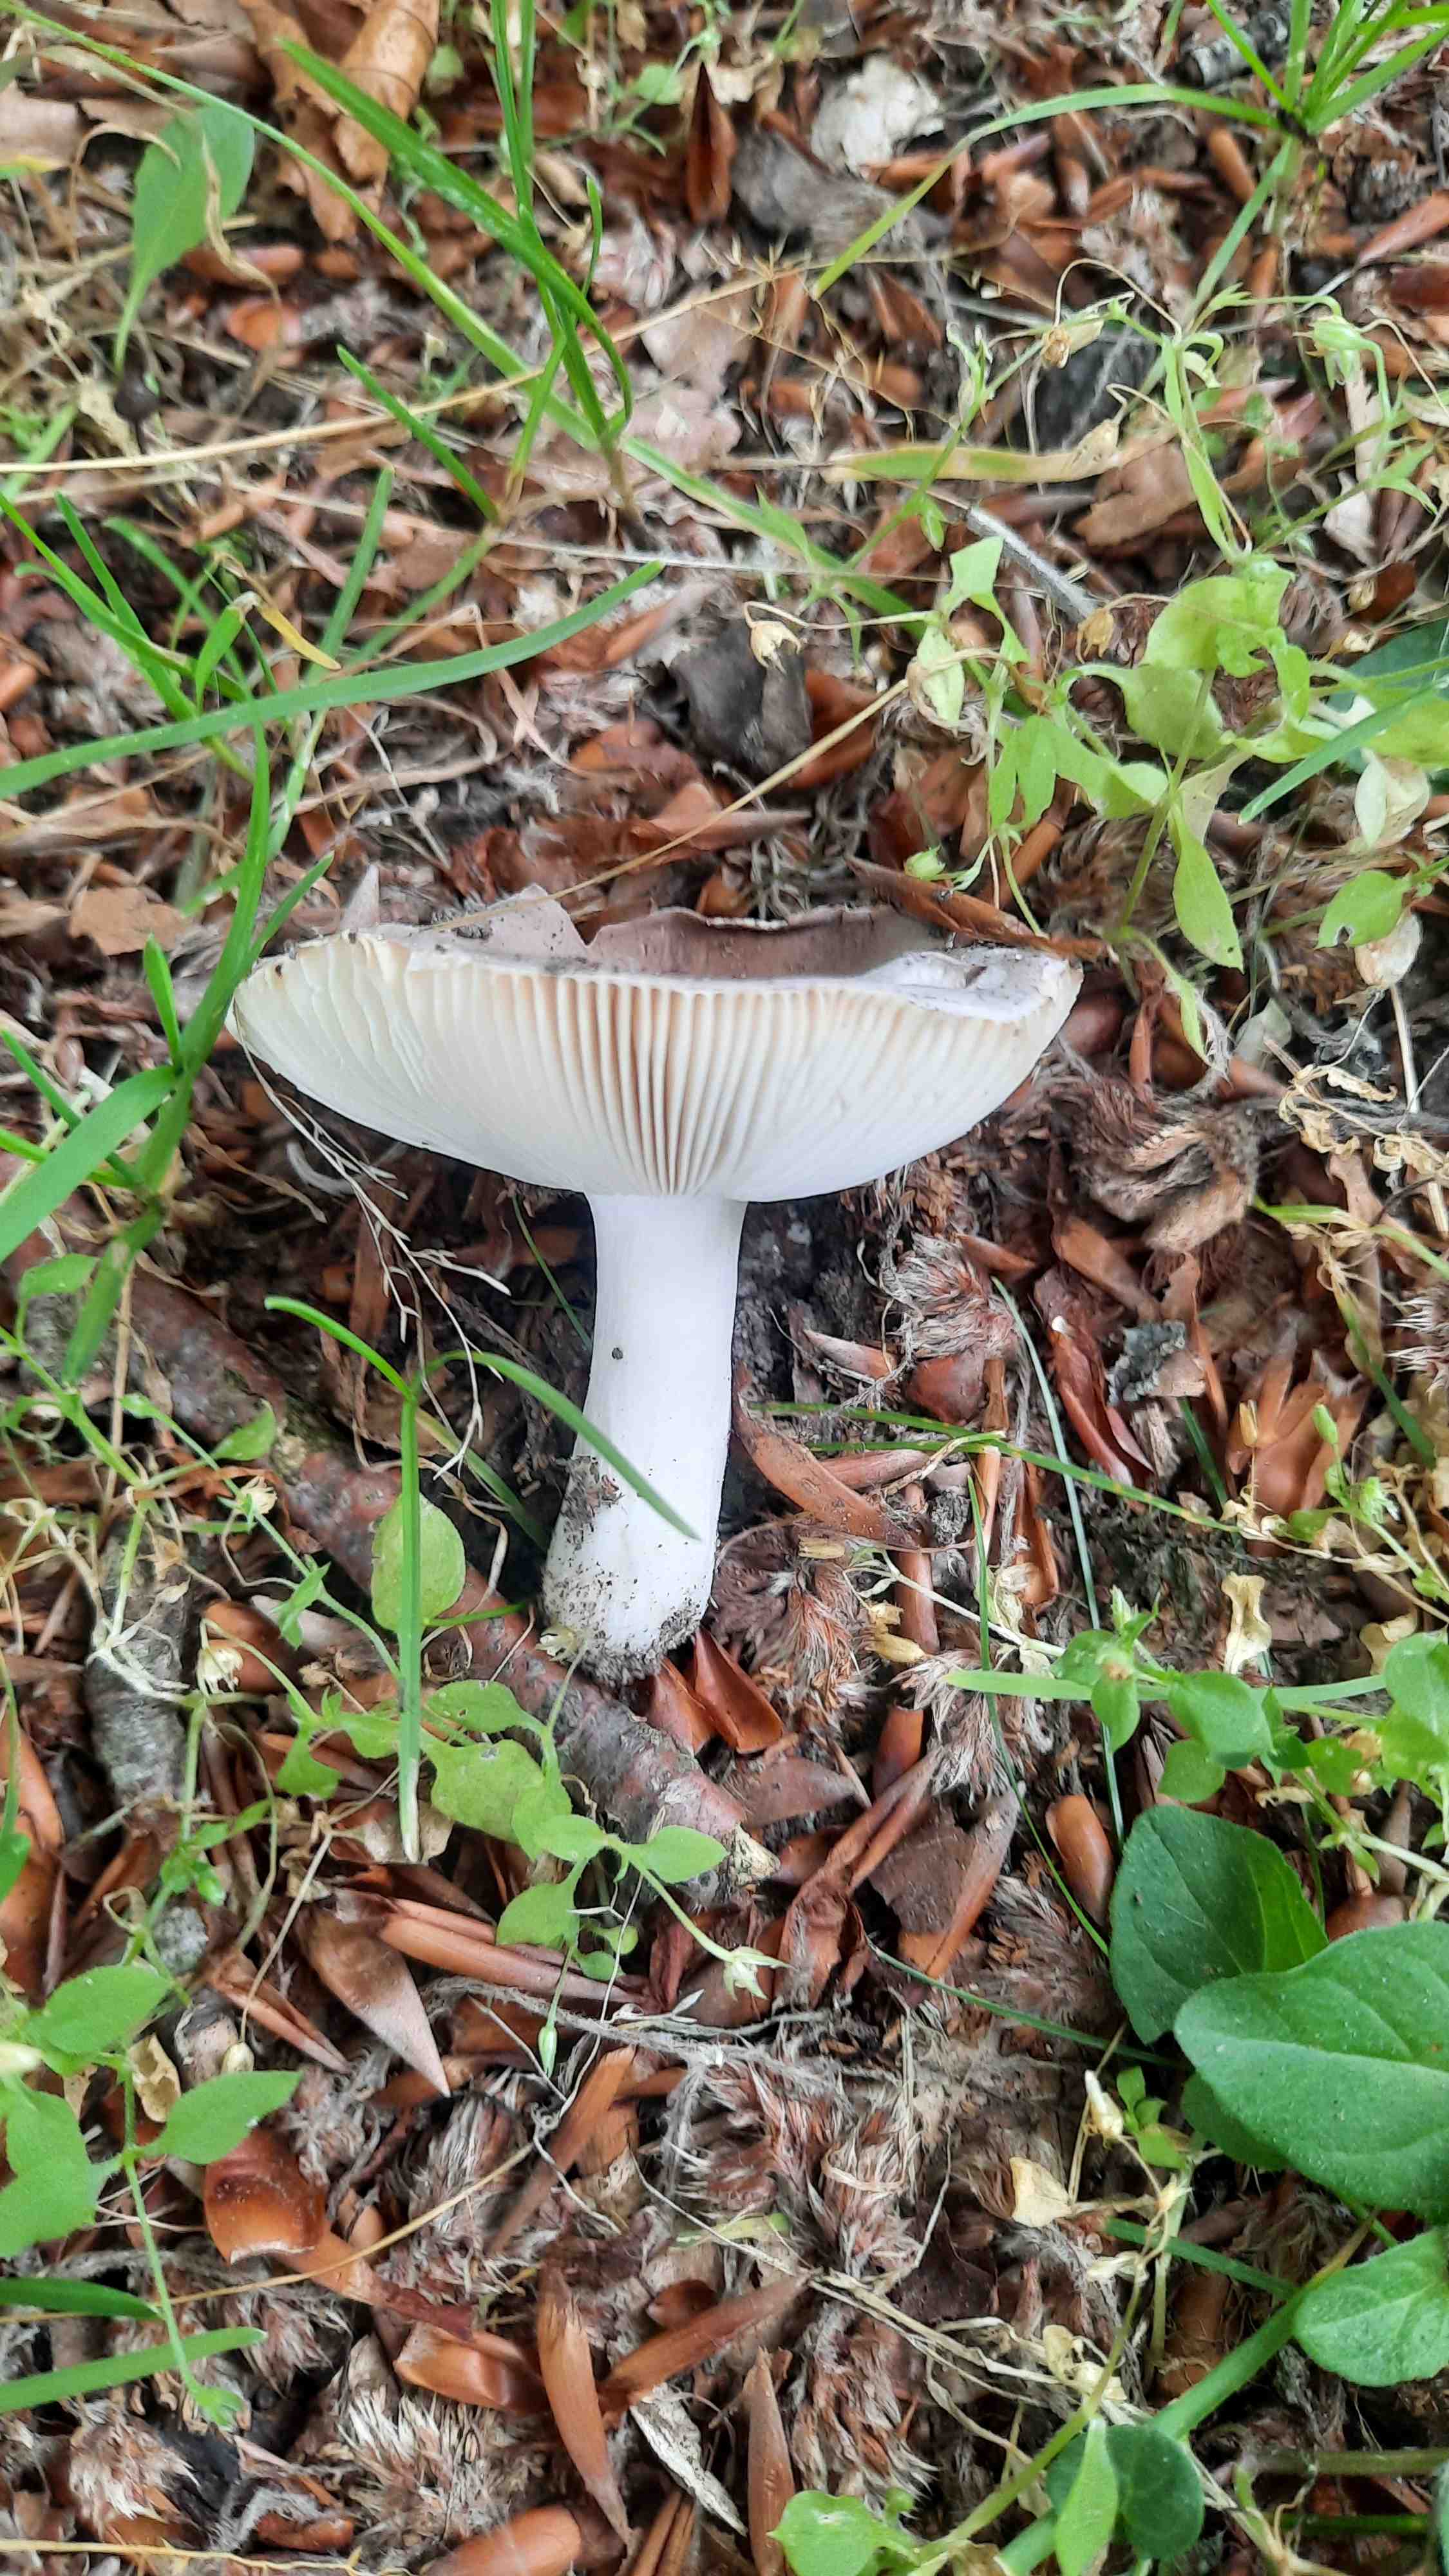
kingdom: Fungi
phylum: Basidiomycota
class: Agaricomycetes
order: Russulales
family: Russulaceae
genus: Russula
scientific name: Russula vesca
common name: spiselig skørhat
